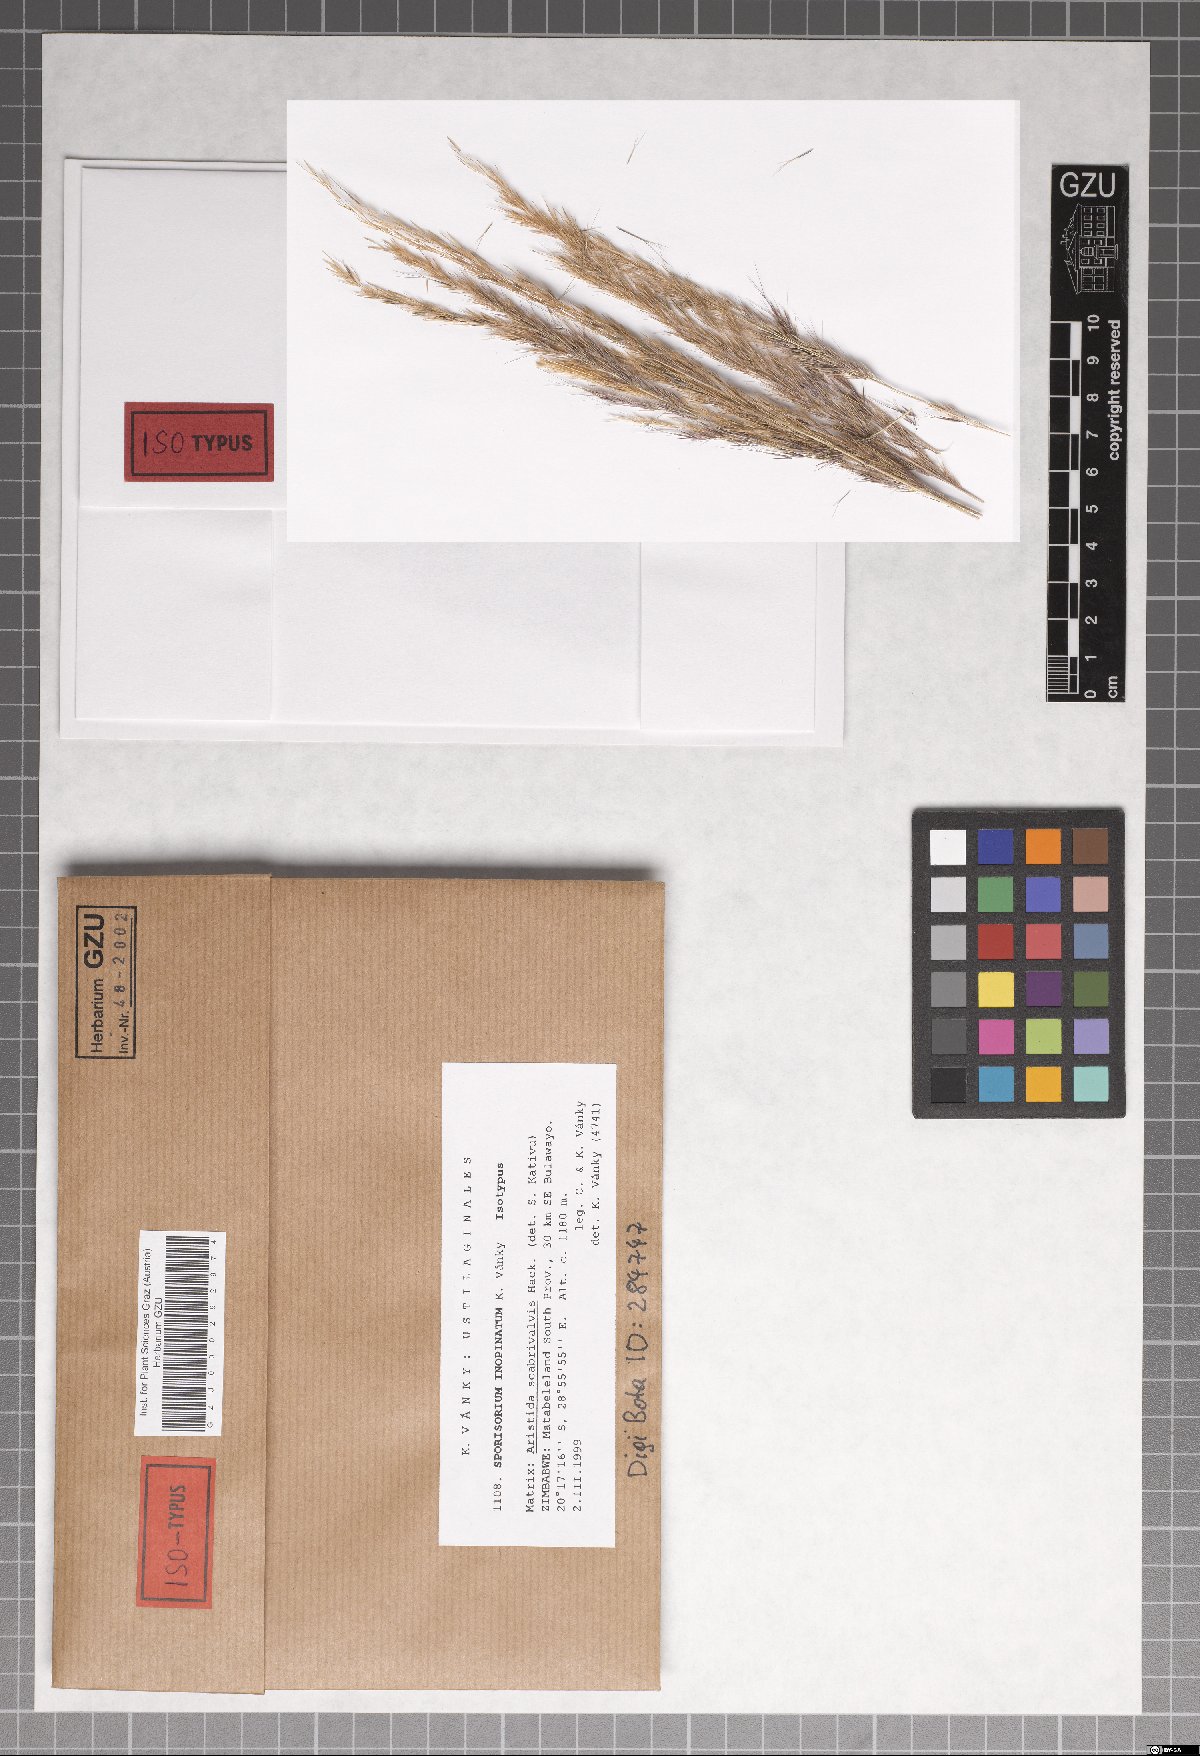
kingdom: Fungi
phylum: Basidiomycota
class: Ustilaginomycetes
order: Ustilaginales
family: Ustilaginaceae
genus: Langdonia
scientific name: Langdonia inopinata
